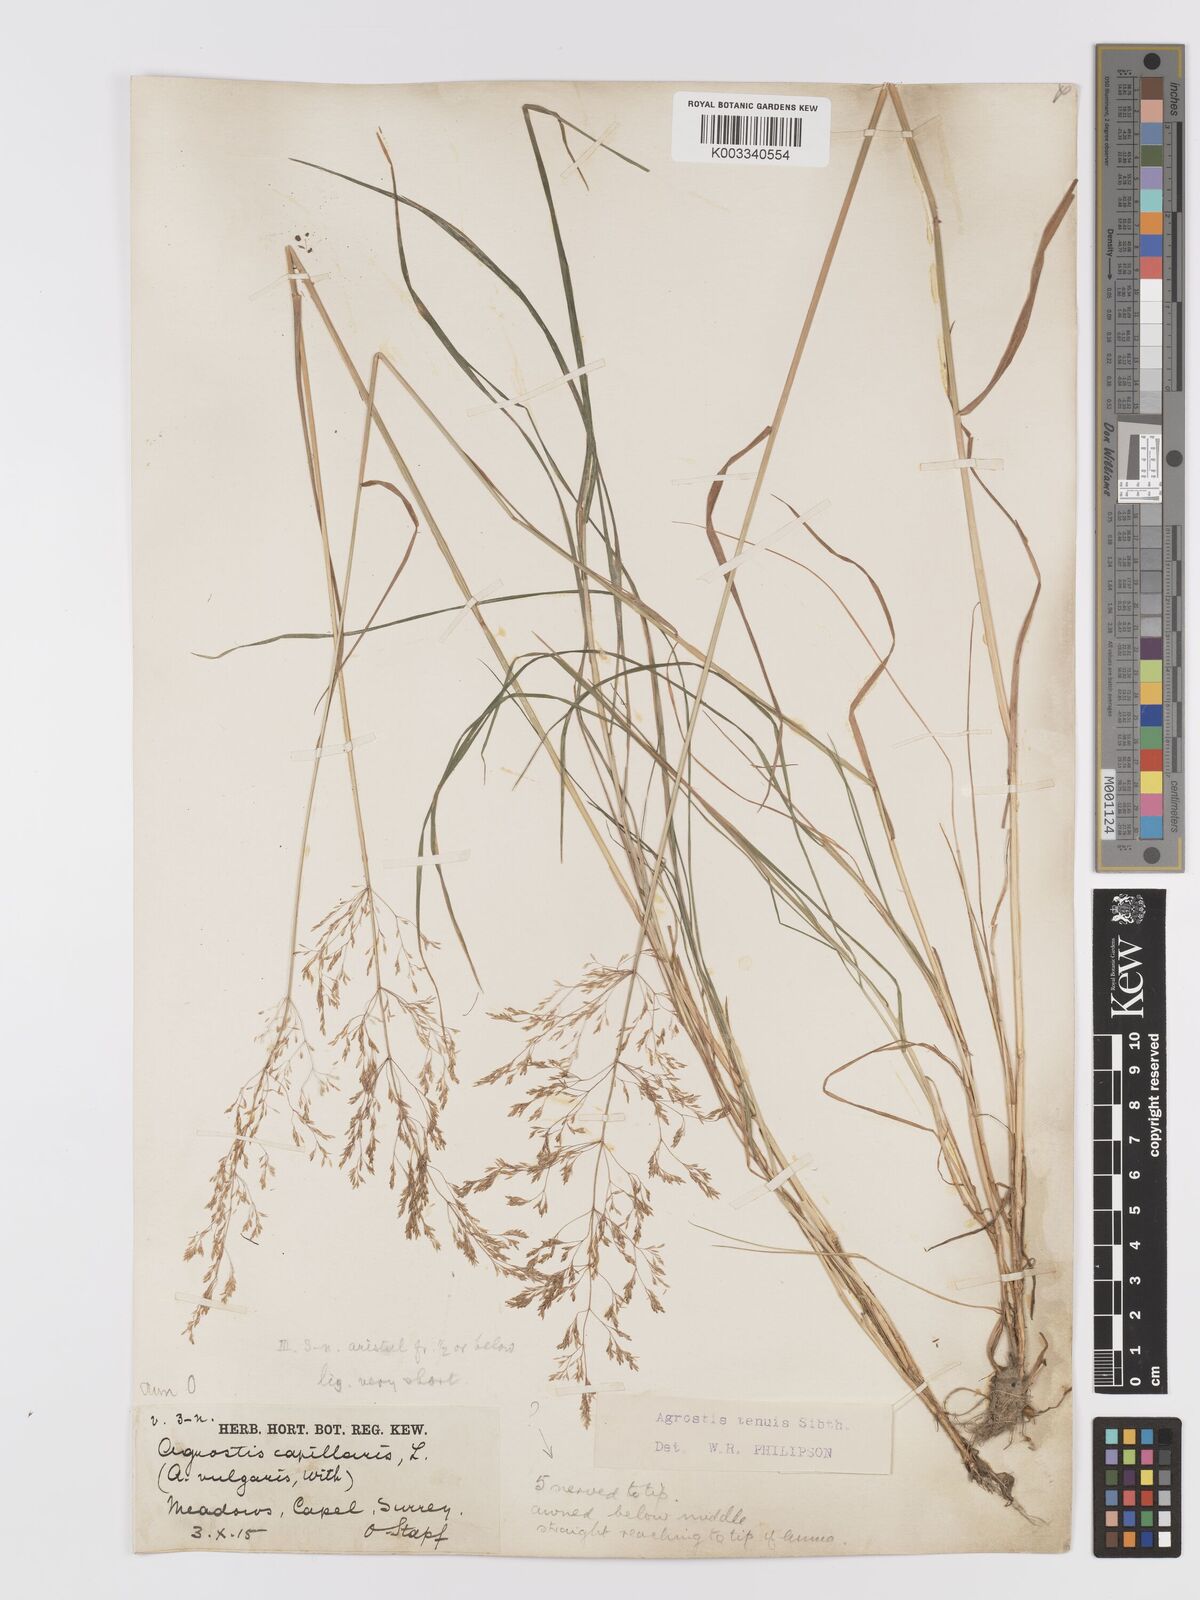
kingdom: Plantae
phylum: Tracheophyta
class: Liliopsida
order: Poales
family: Poaceae
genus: Agrostis
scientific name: Agrostis capillaris
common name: Colonial bentgrass
